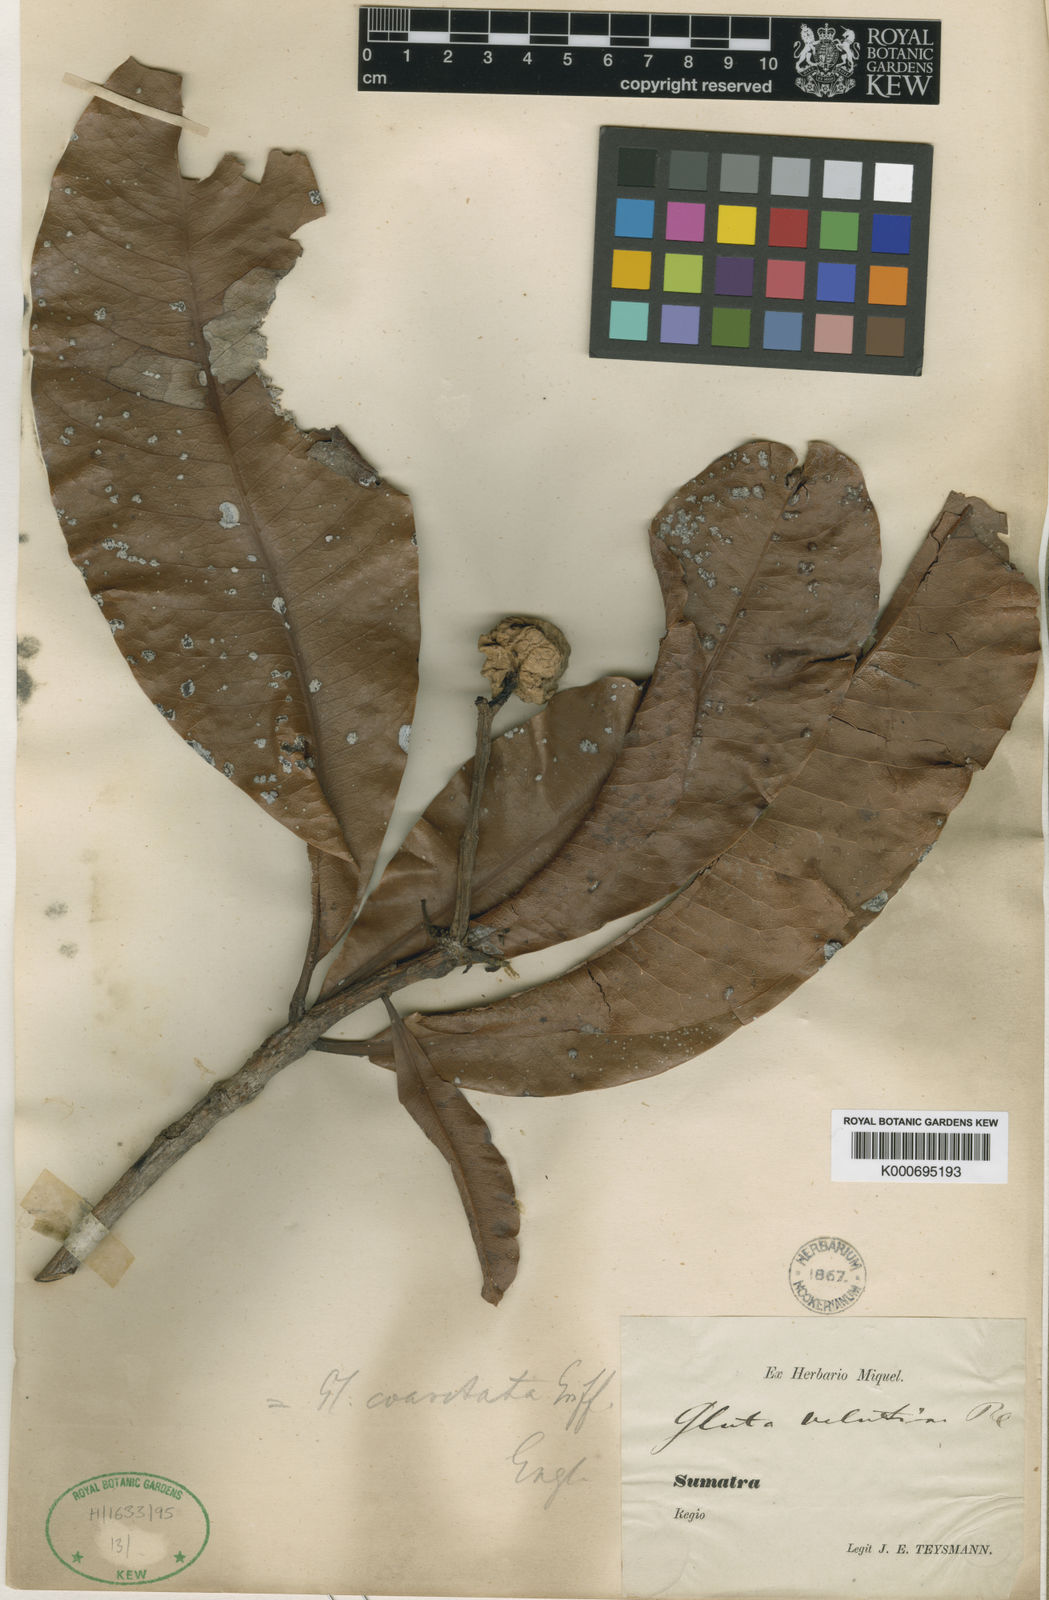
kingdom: Plantae
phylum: Tracheophyta
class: Magnoliopsida
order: Sapindales
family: Anacardiaceae
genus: Gluta
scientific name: Gluta velutina
